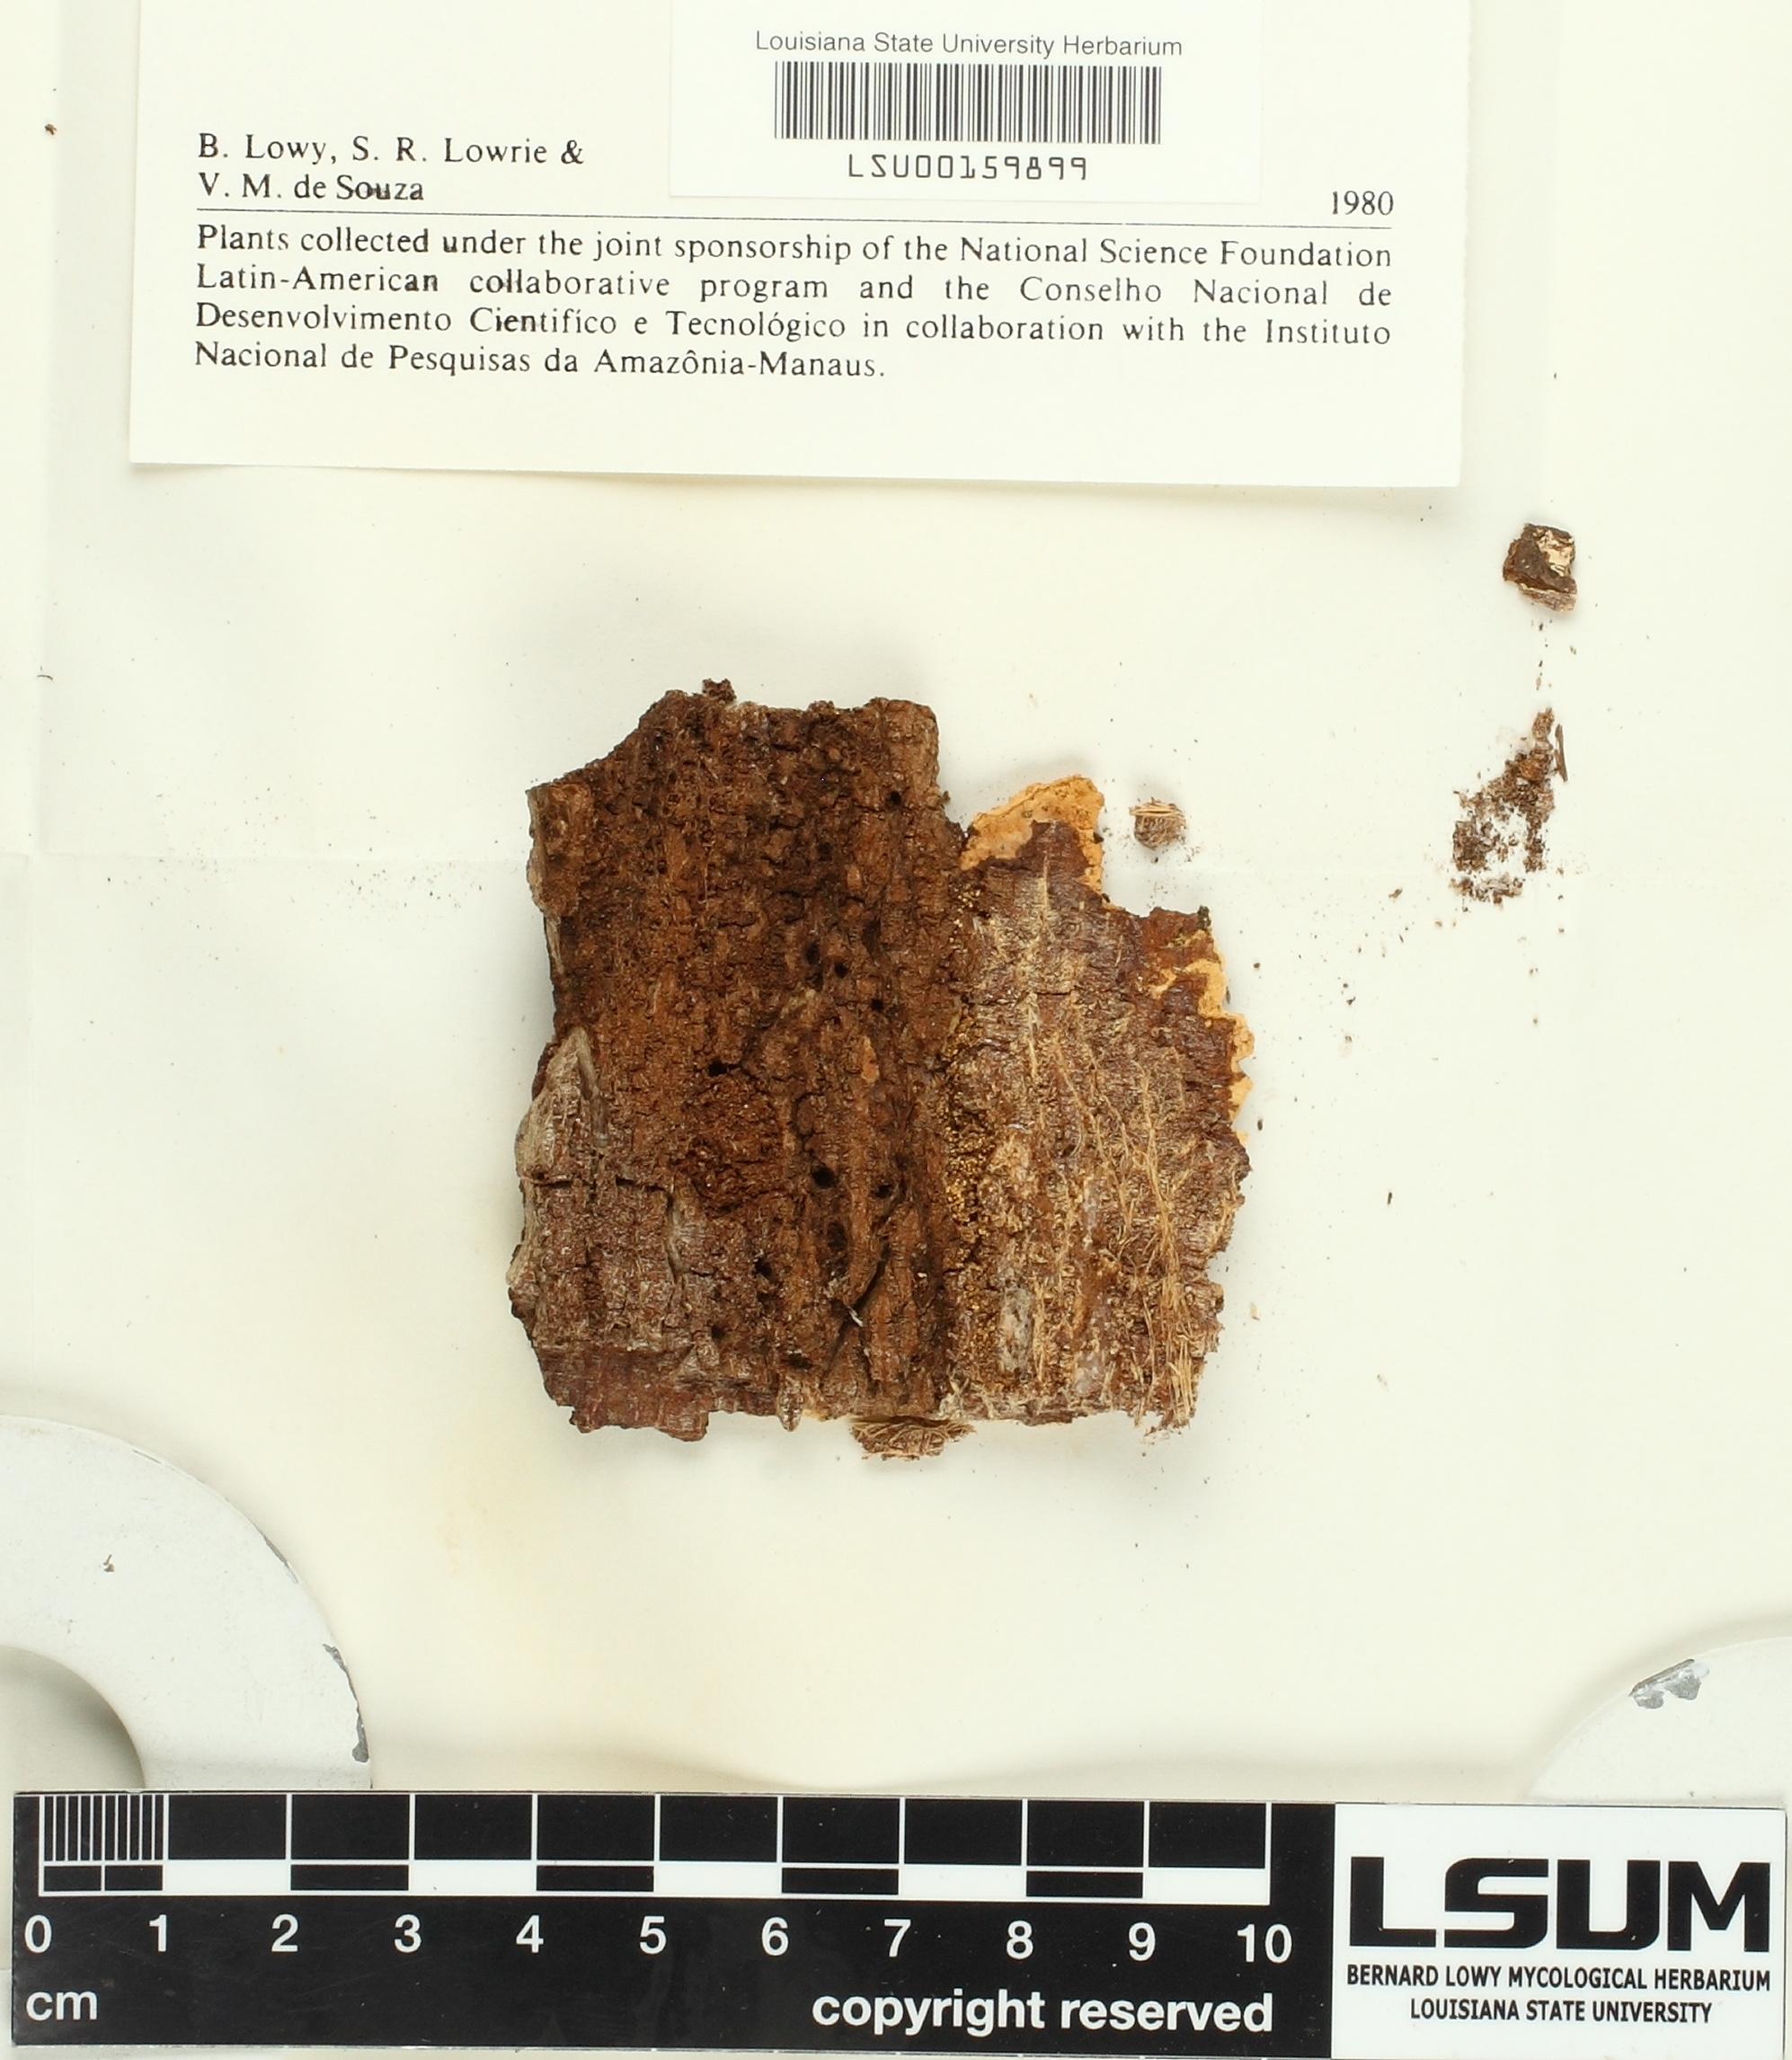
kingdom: Fungi
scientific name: Fungi
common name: Fungi
